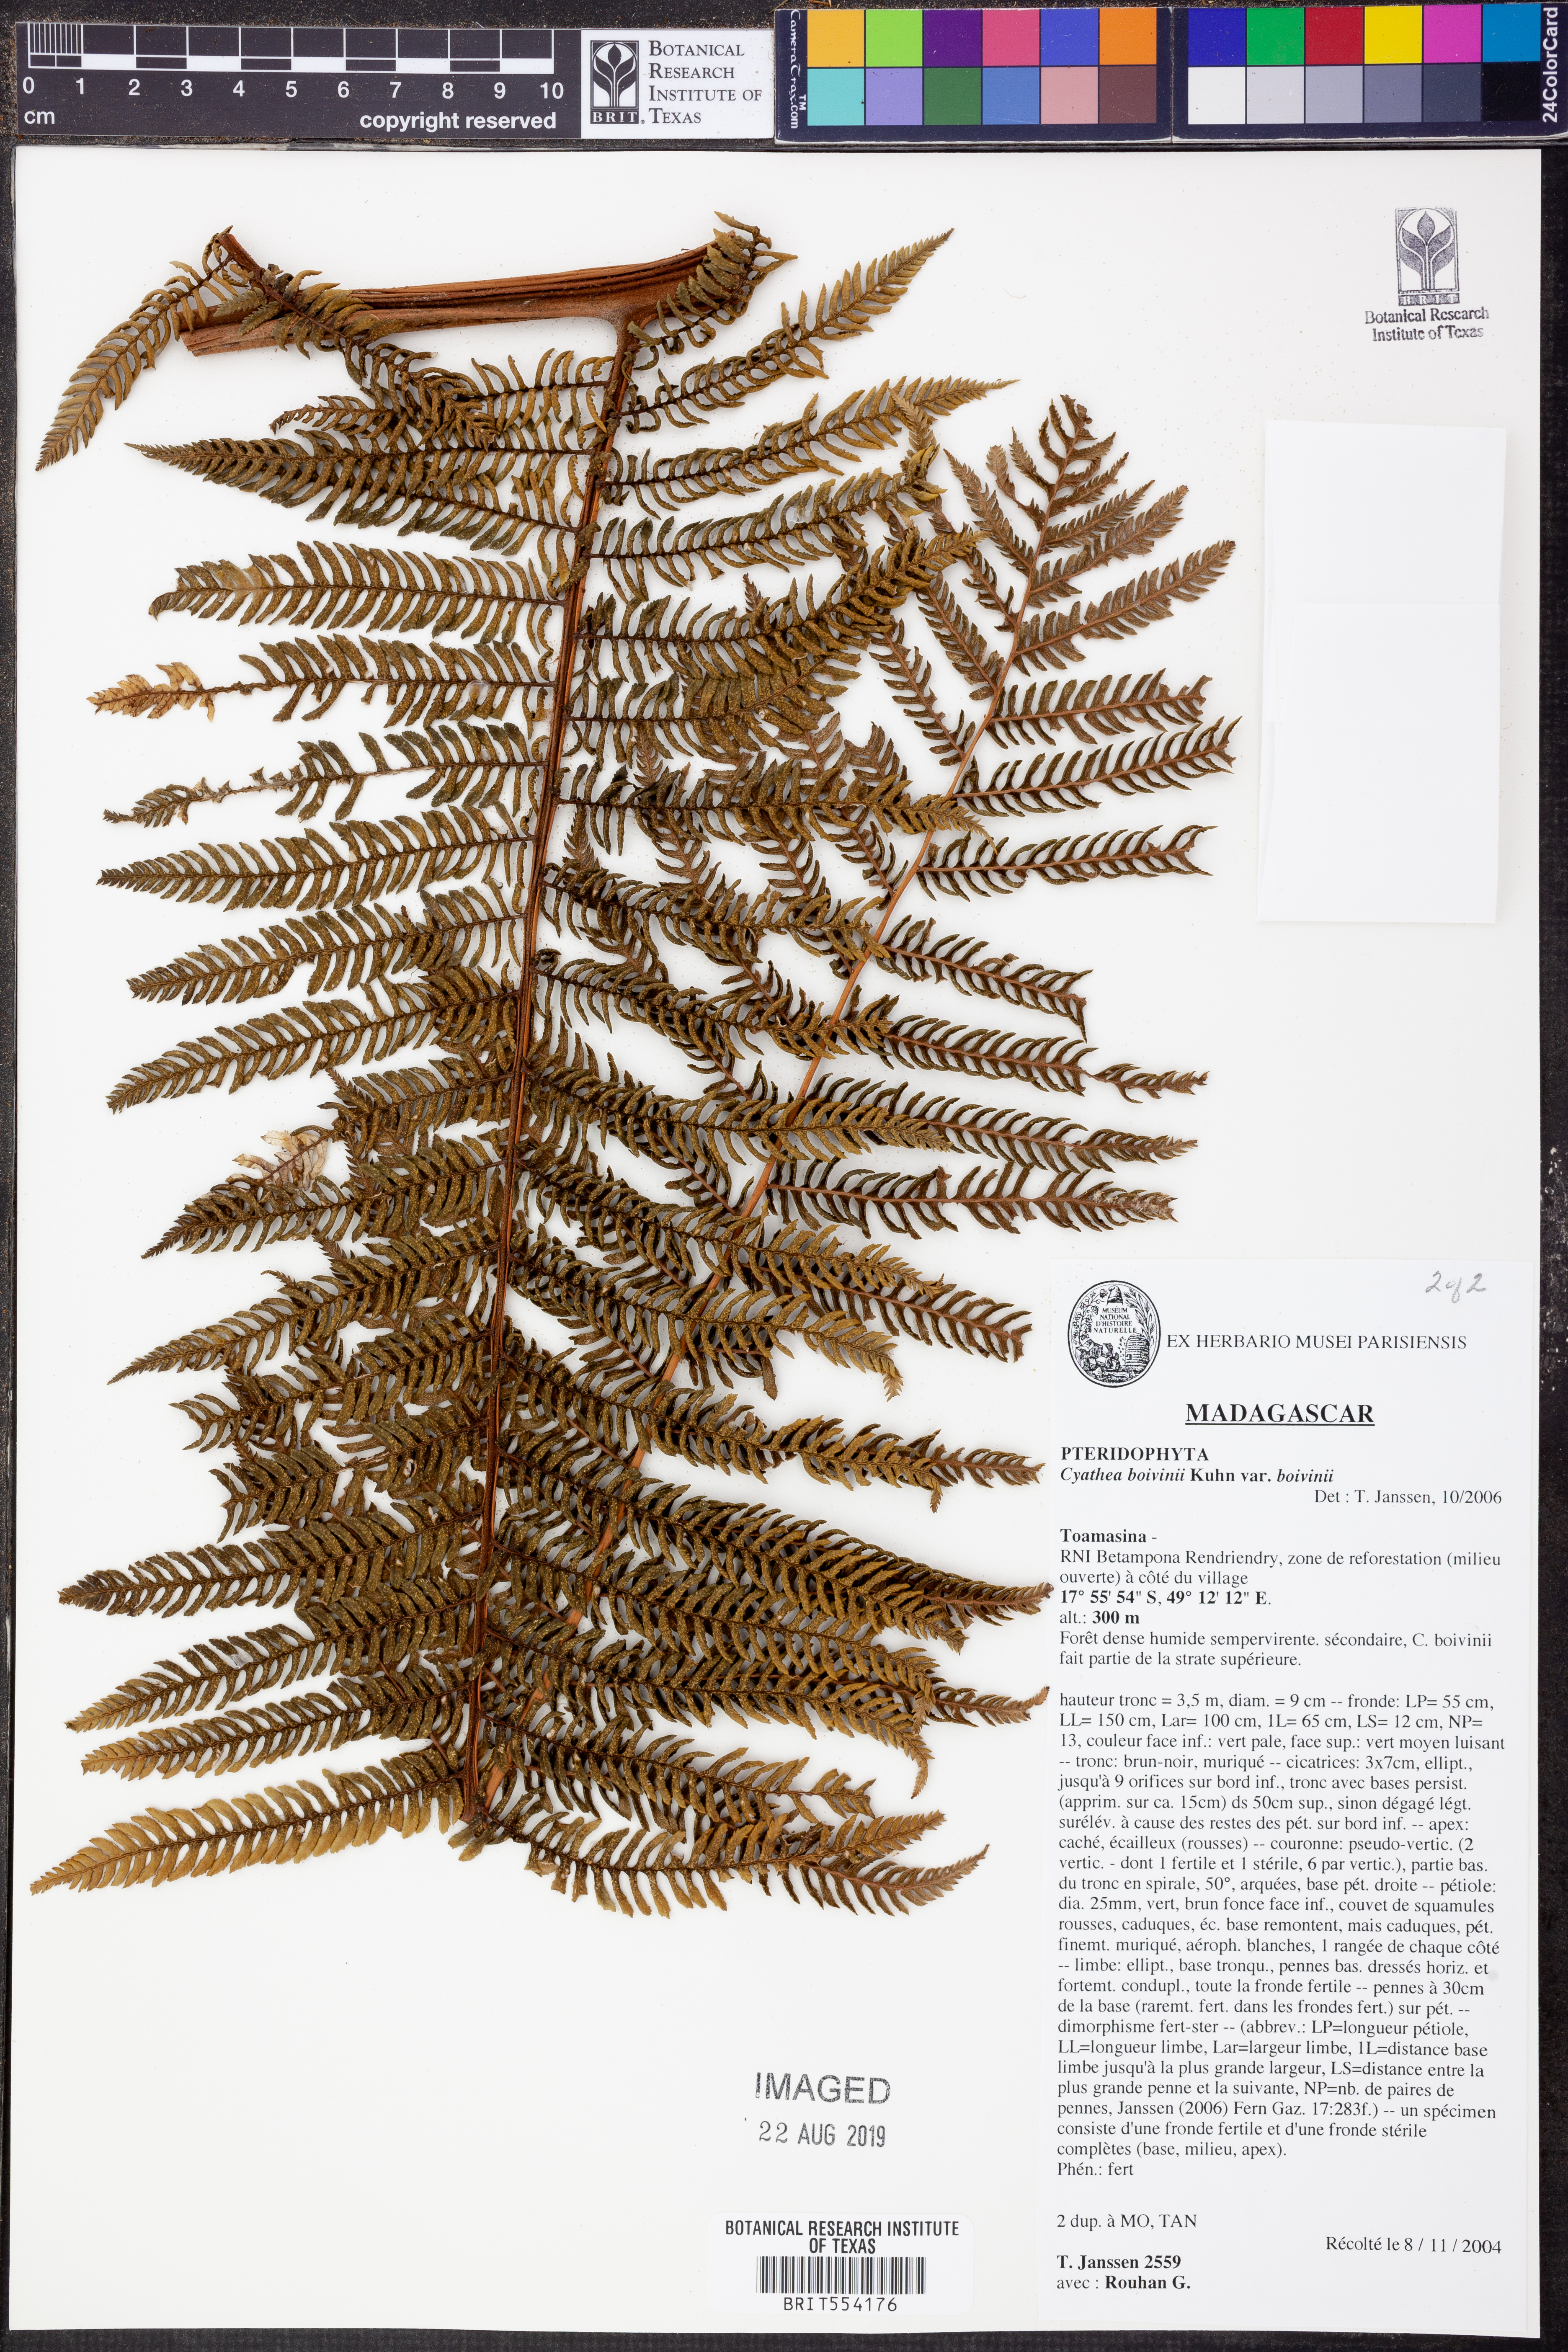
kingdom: Plantae
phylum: Tracheophyta
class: Polypodiopsida
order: Cyatheales
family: Cyatheaceae
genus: Cyathea
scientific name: Cyathea boivinii
